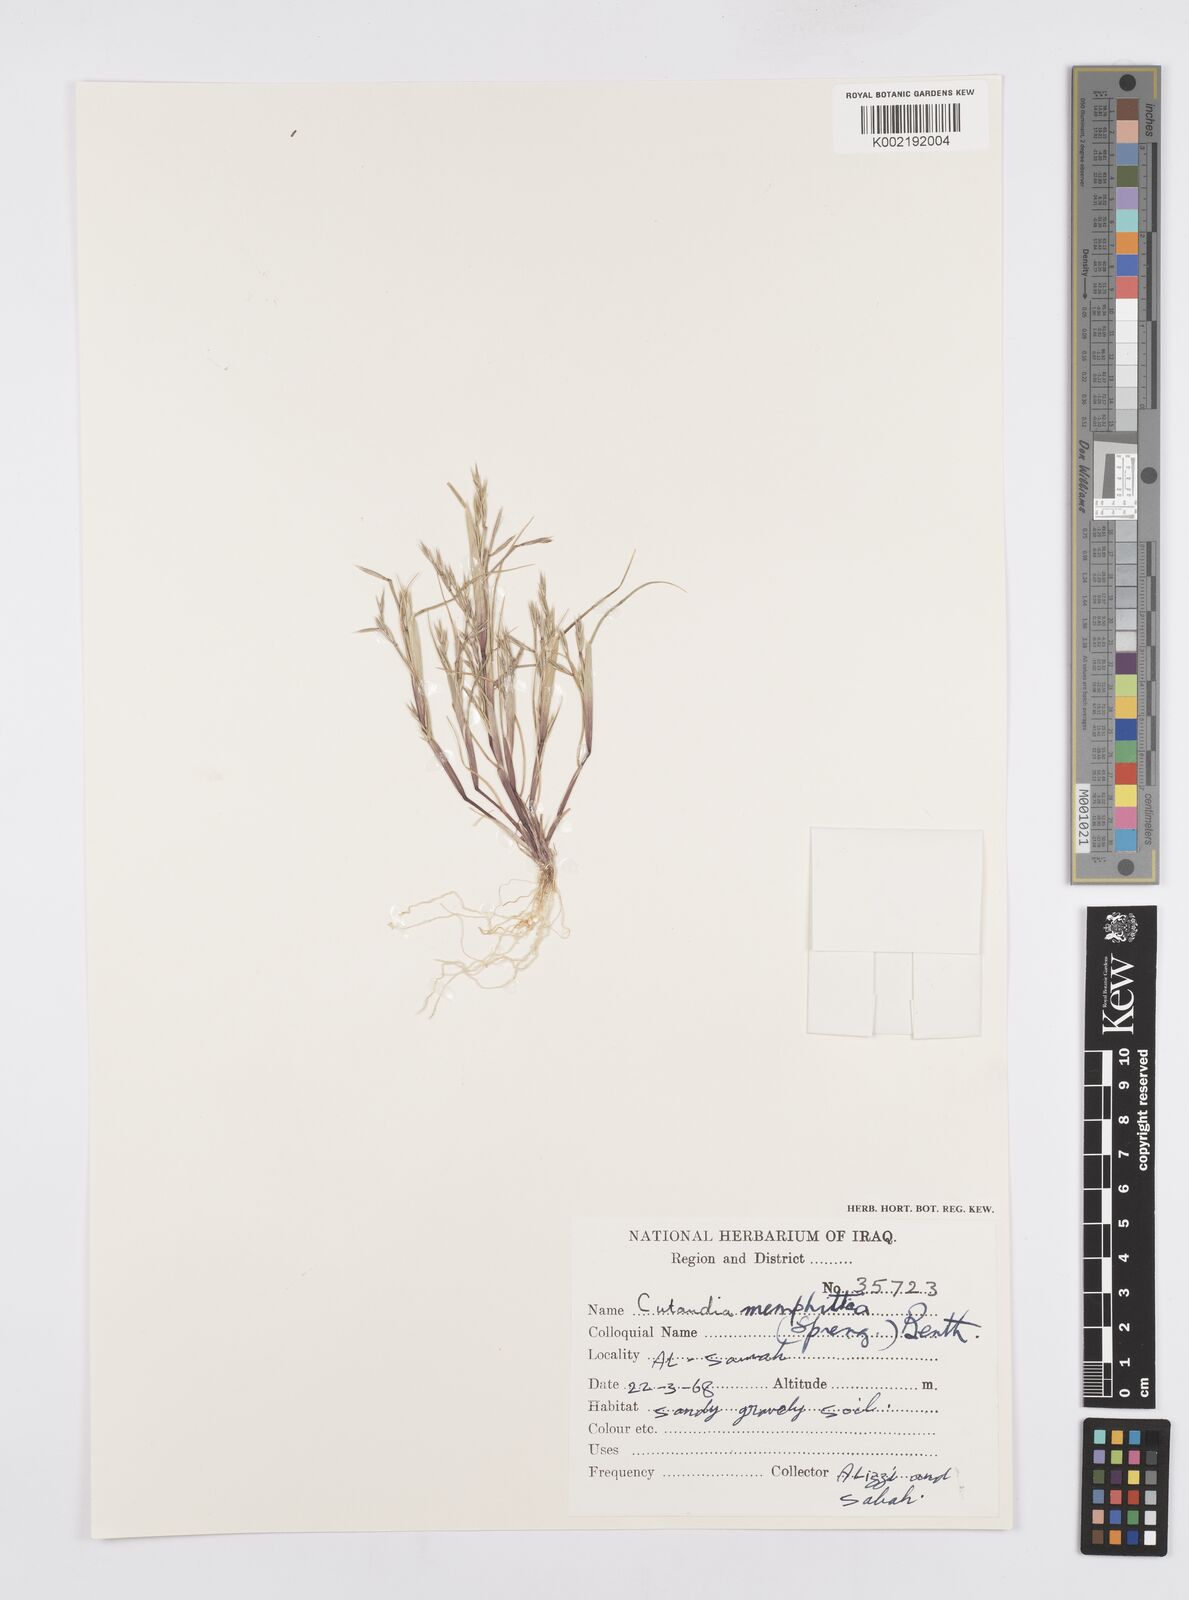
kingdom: Plantae
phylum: Tracheophyta
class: Liliopsida
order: Poales
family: Poaceae
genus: Cutandia
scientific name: Cutandia memphitica
